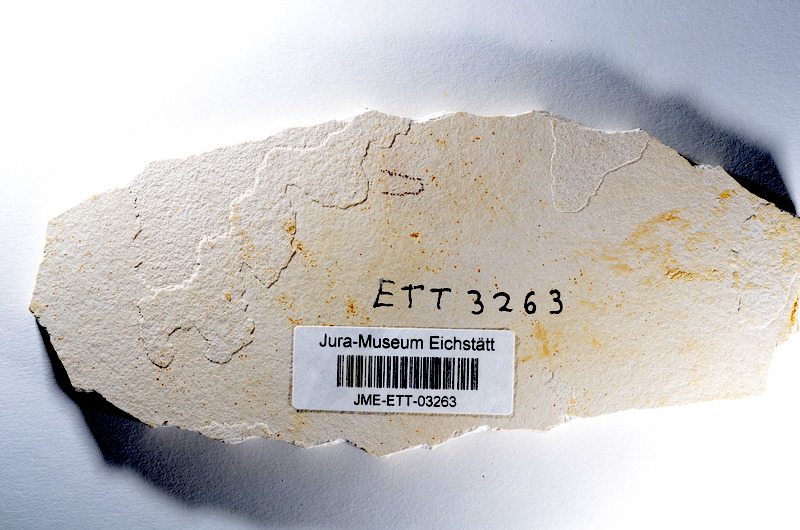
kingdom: Animalia
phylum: Chordata
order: Salmoniformes
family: Orthogonikleithridae
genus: Orthogonikleithrus
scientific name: Orthogonikleithrus hoelli
